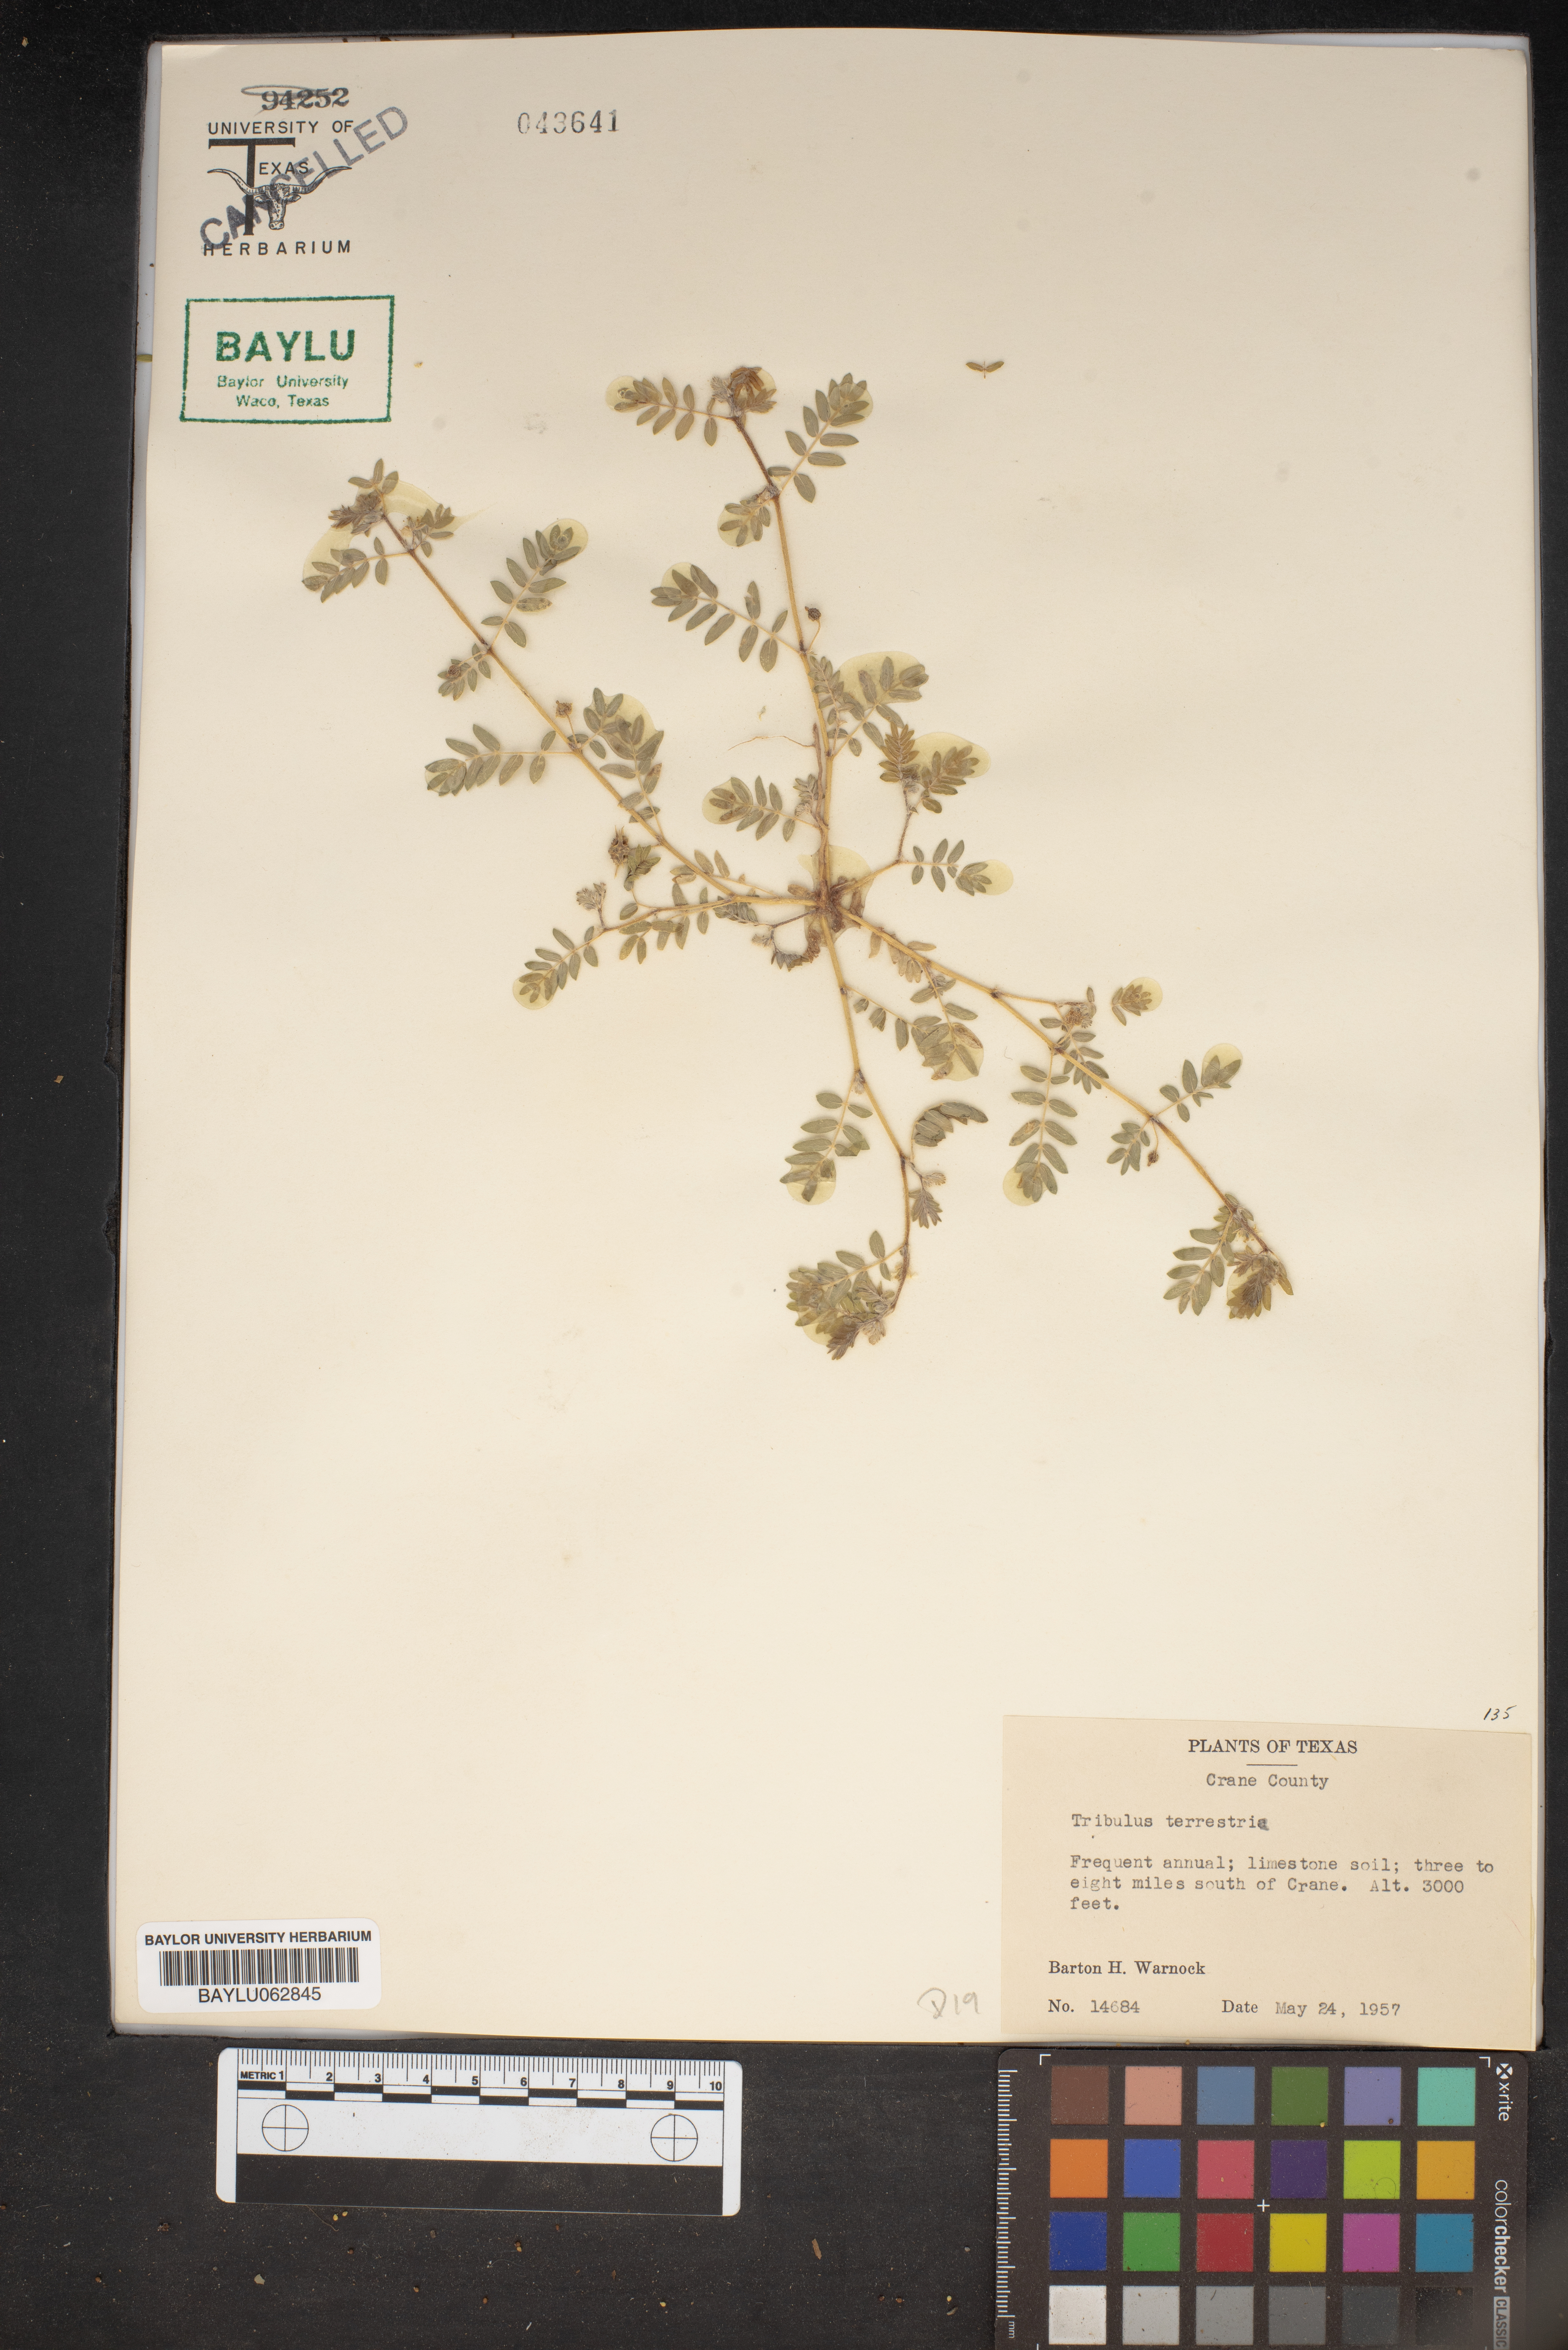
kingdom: Plantae
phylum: Tracheophyta
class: Magnoliopsida
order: Zygophyllales
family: Zygophyllaceae
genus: Tribulus
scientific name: Tribulus terrestris
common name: Puncturevine
